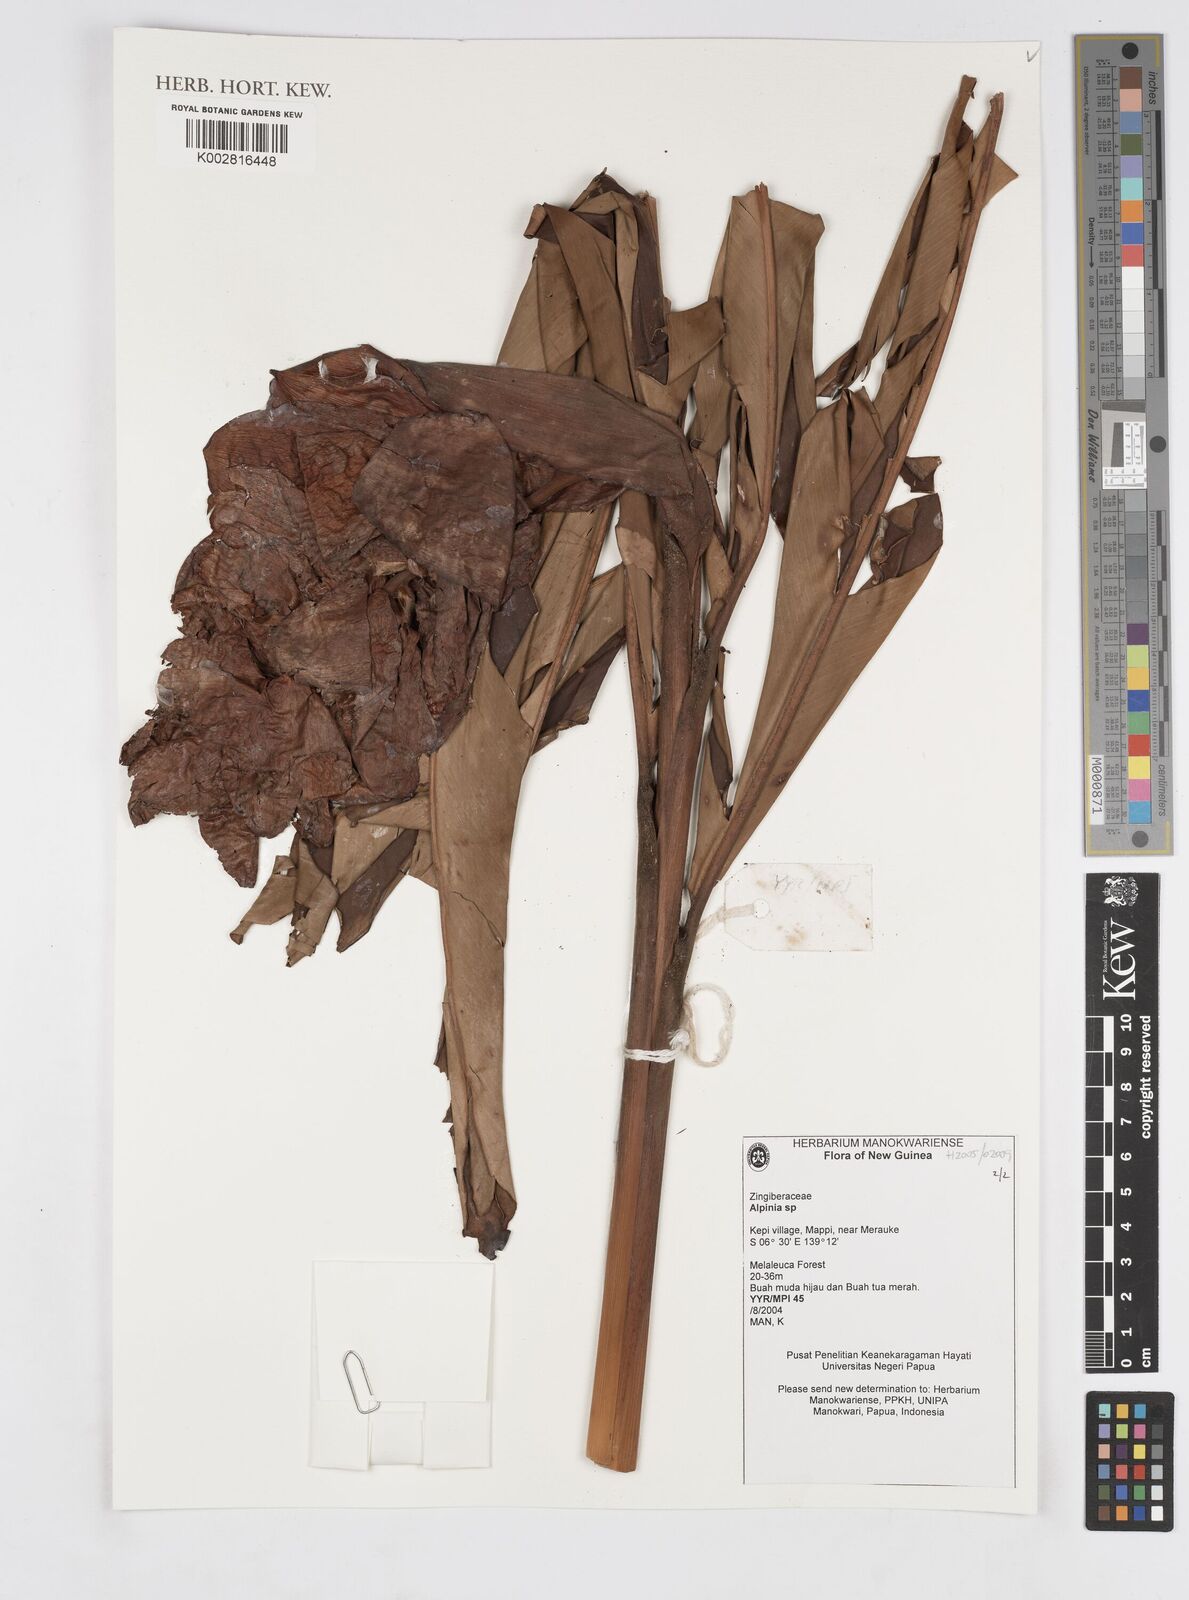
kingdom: Plantae
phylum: Tracheophyta
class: Liliopsida
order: Zingiberales
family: Zingiberaceae
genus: Alpinia
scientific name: Alpinia
